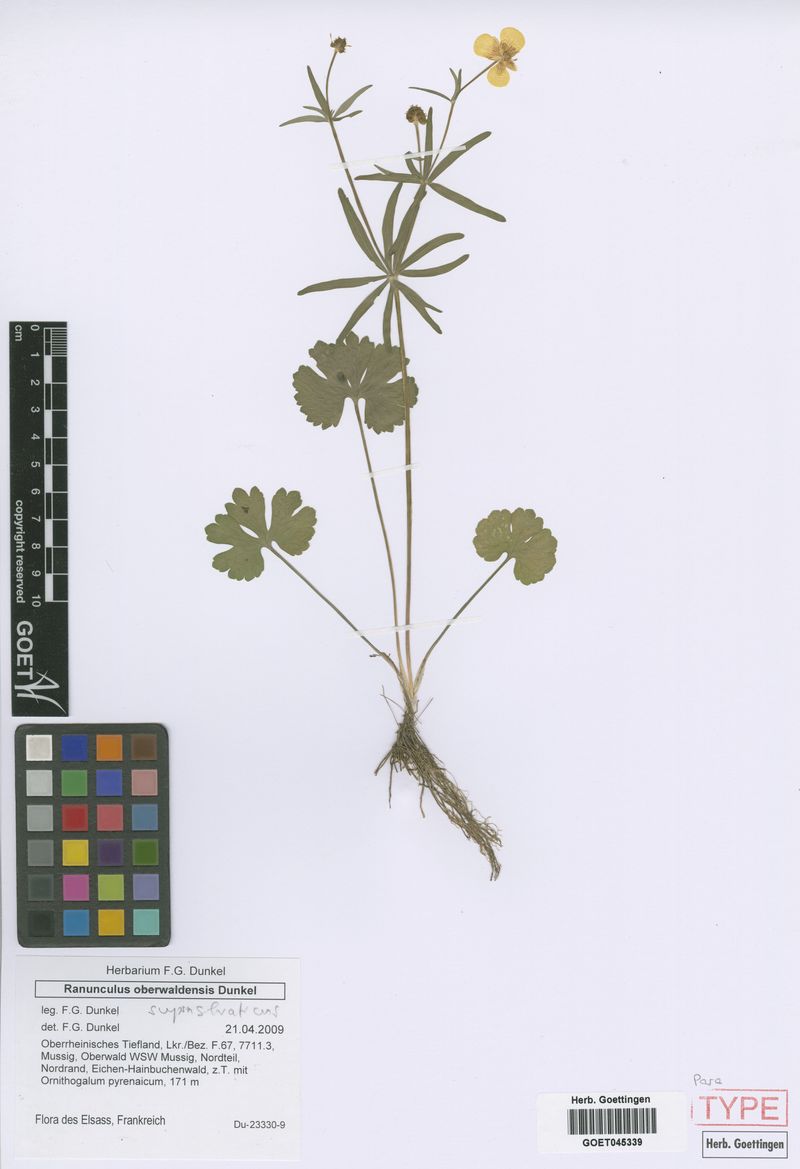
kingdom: Plantae
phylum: Tracheophyta
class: Magnoliopsida
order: Ranunculales
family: Ranunculaceae
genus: Ranunculus
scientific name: Ranunculus suprasilvaticus
